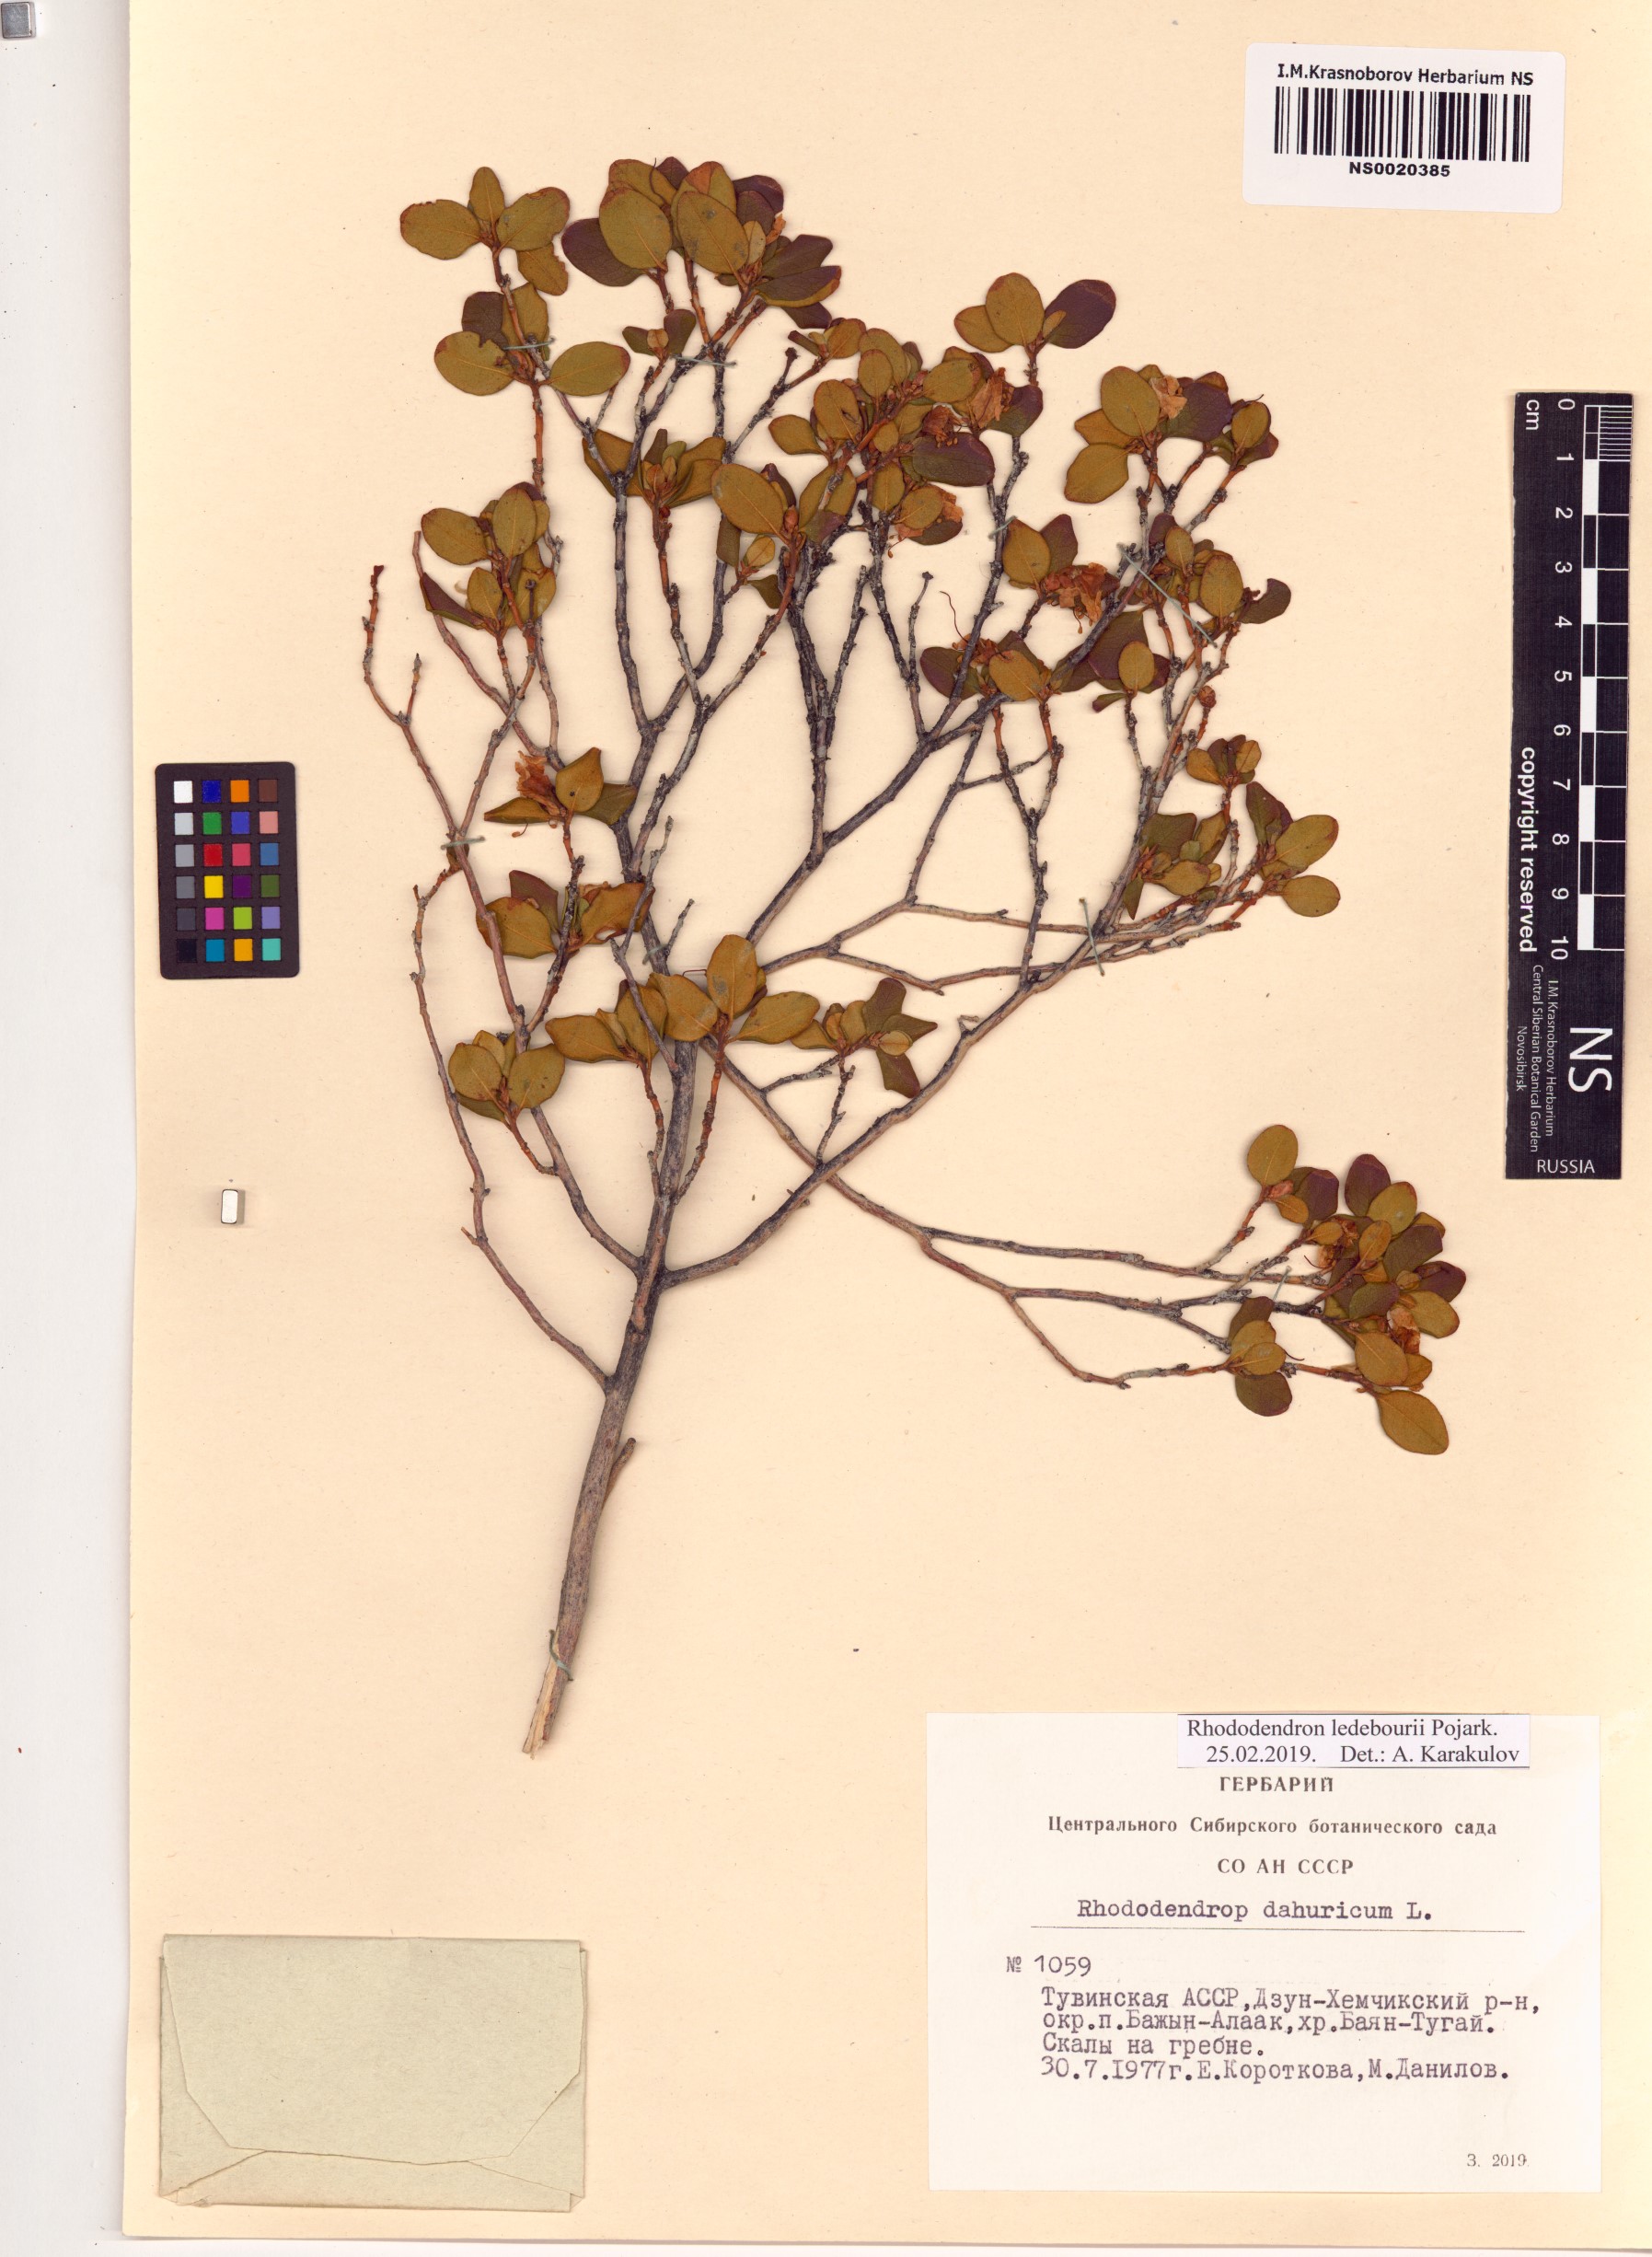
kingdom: Plantae
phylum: Tracheophyta
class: Magnoliopsida
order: Ericales
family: Ericaceae
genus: Rhododendron
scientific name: Rhododendron dauricum
